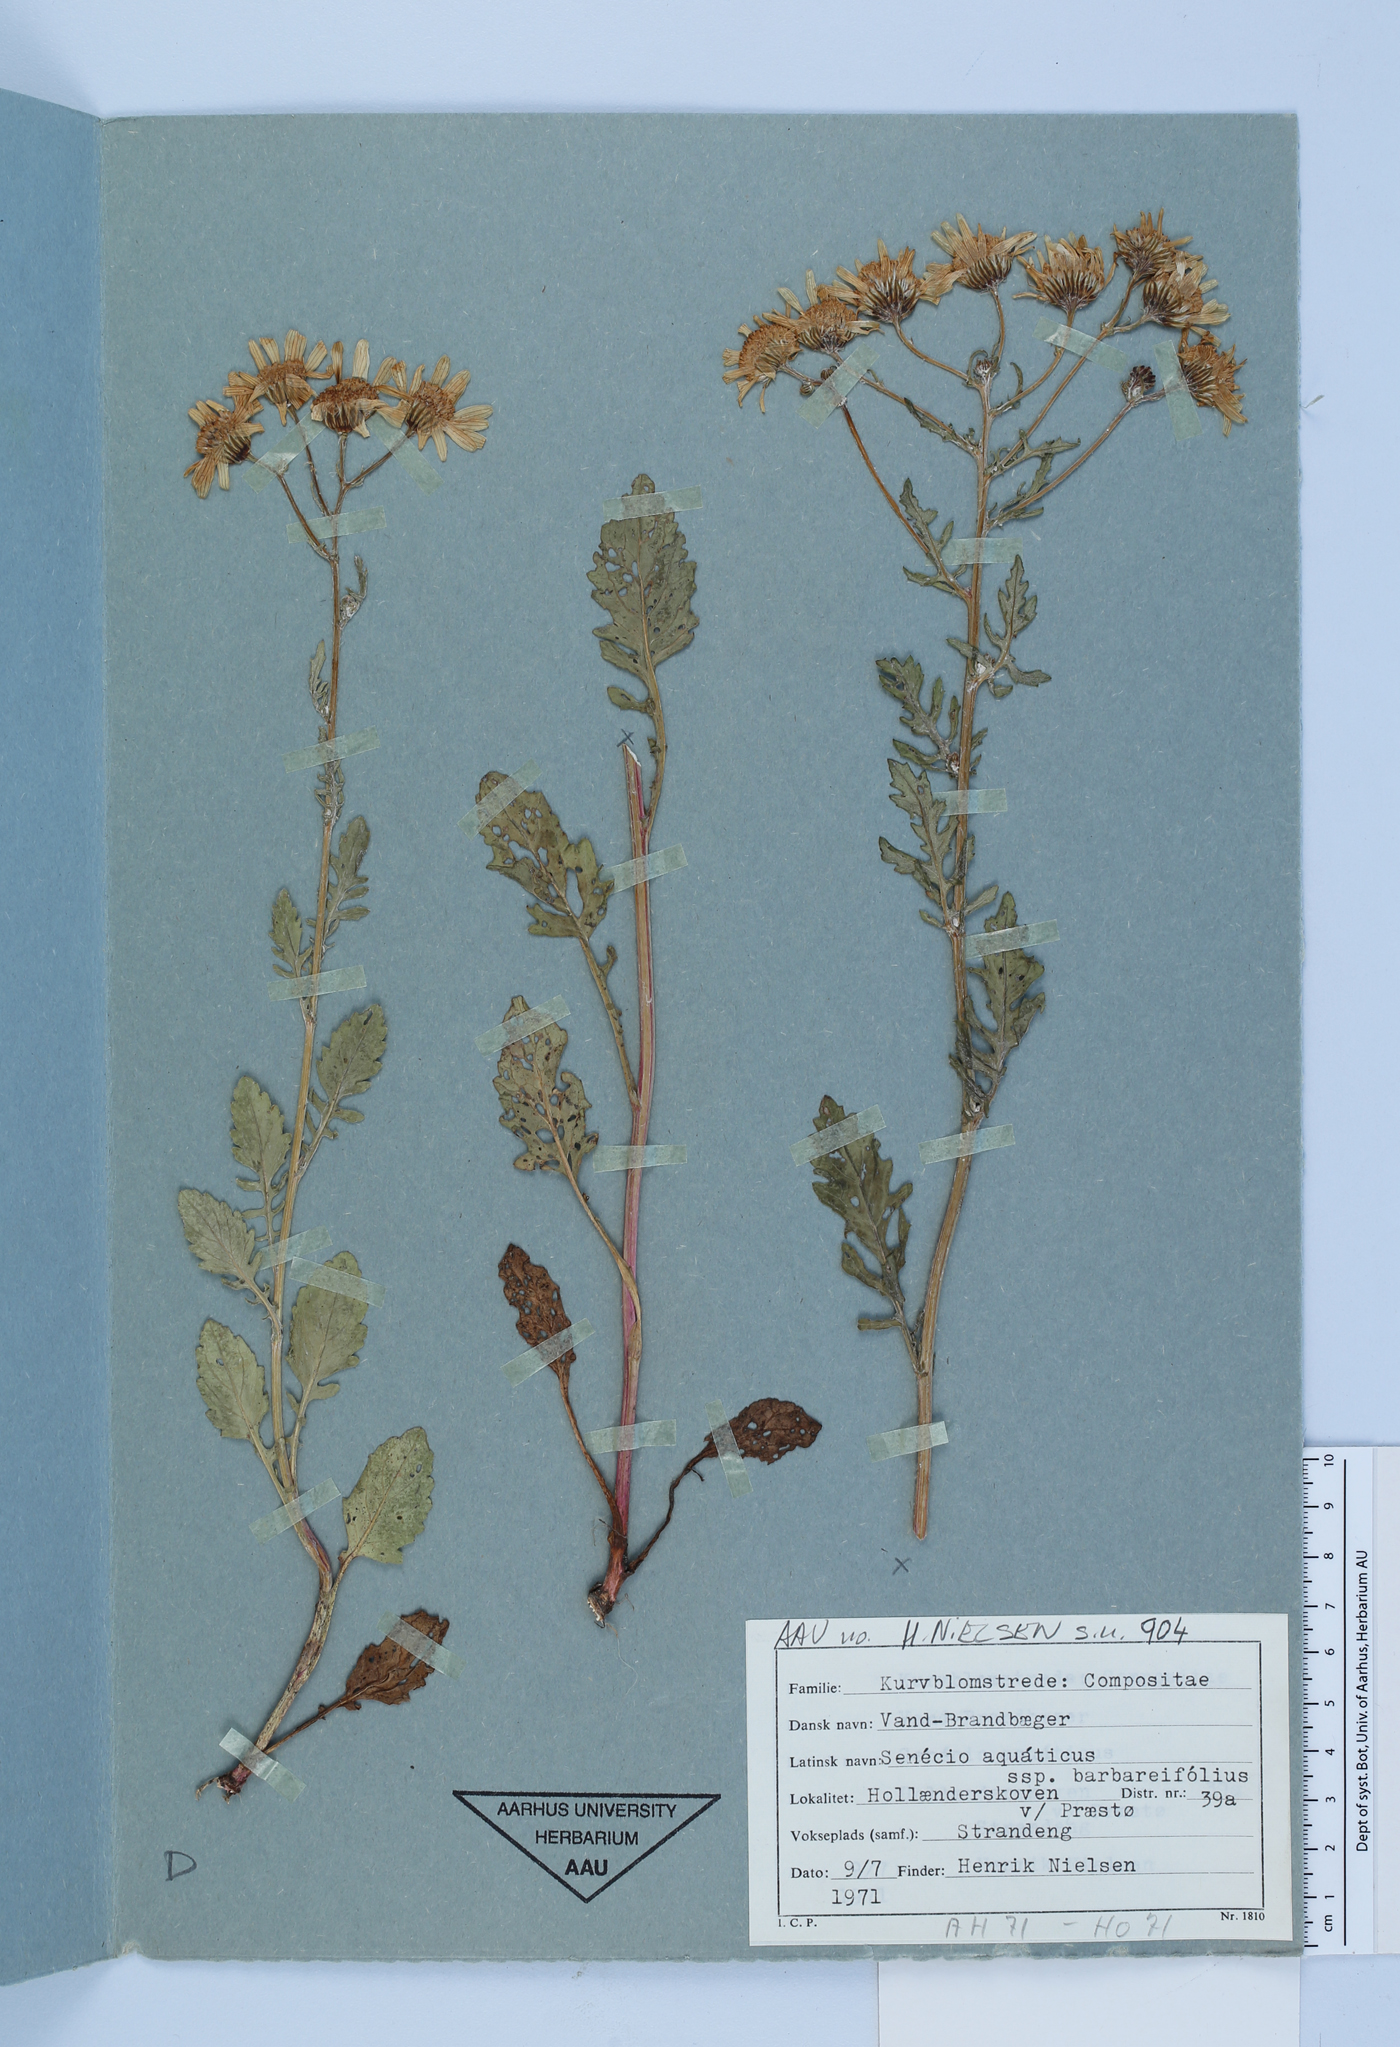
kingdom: Plantae
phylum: Tracheophyta
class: Magnoliopsida
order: Asterales
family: Asteraceae
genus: Jacobaea
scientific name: Jacobaea aquatica
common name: Water ragwort
